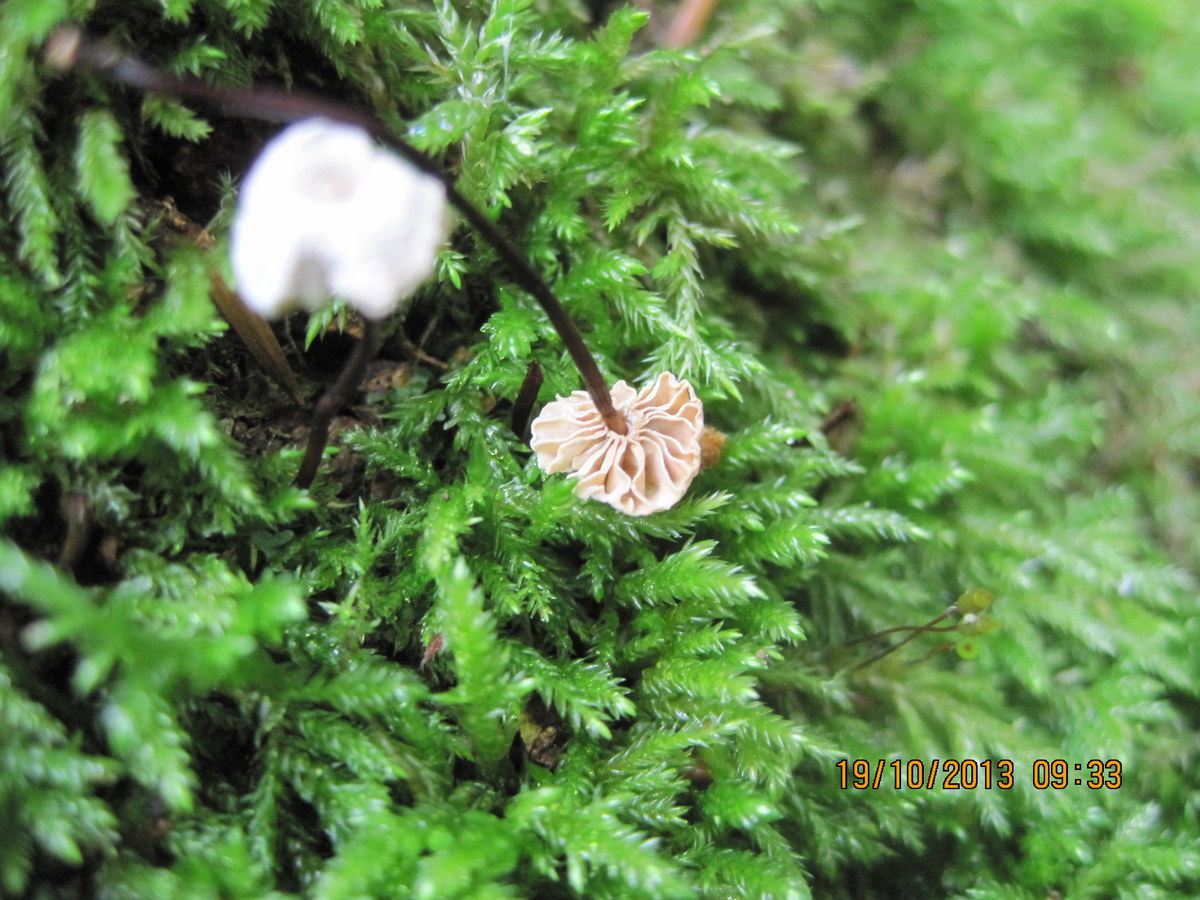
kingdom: Fungi
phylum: Basidiomycota
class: Agaricomycetes
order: Agaricales
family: Marasmiaceae
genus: Marasmius
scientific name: Marasmius rotula
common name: hjul-bruskhat
